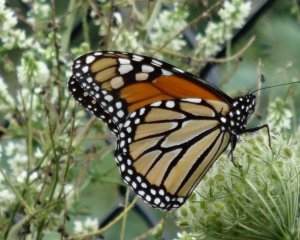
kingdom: Animalia
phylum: Arthropoda
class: Insecta
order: Lepidoptera
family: Nymphalidae
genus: Danaus
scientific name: Danaus plexippus
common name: Monarch
